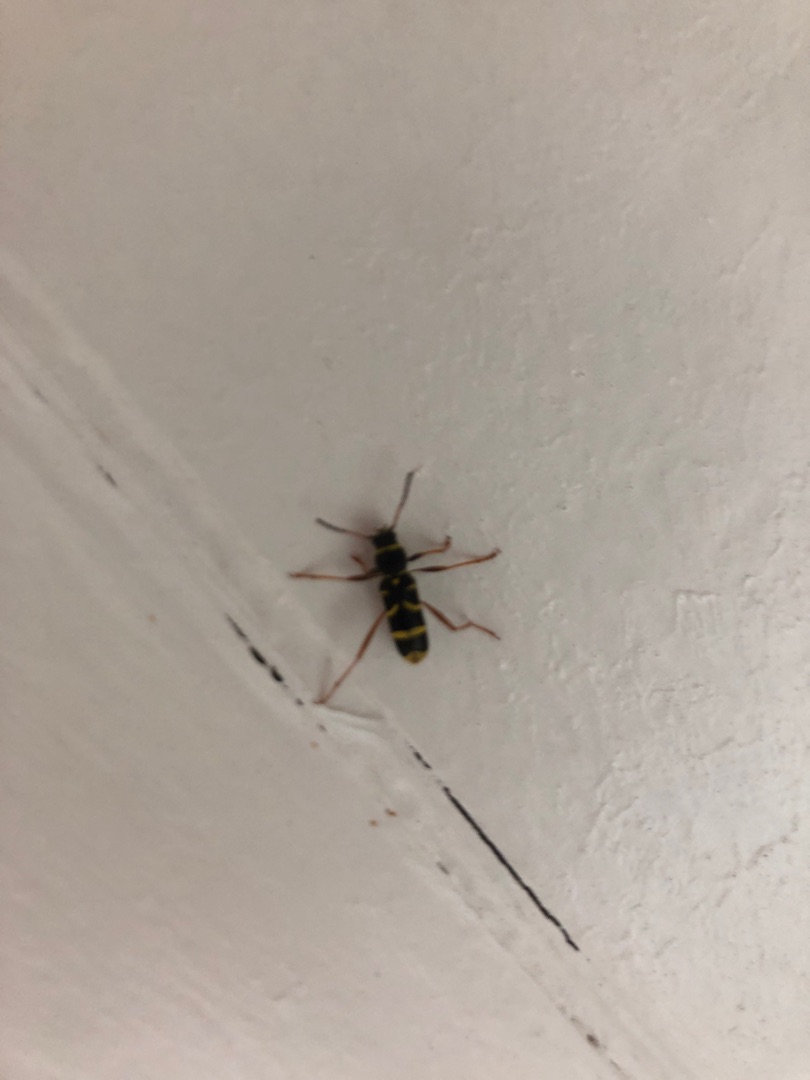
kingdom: Animalia
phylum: Arthropoda
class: Insecta
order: Coleoptera
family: Cerambycidae
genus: Clytus
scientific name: Clytus arietis
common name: Lille hvepsebuk
